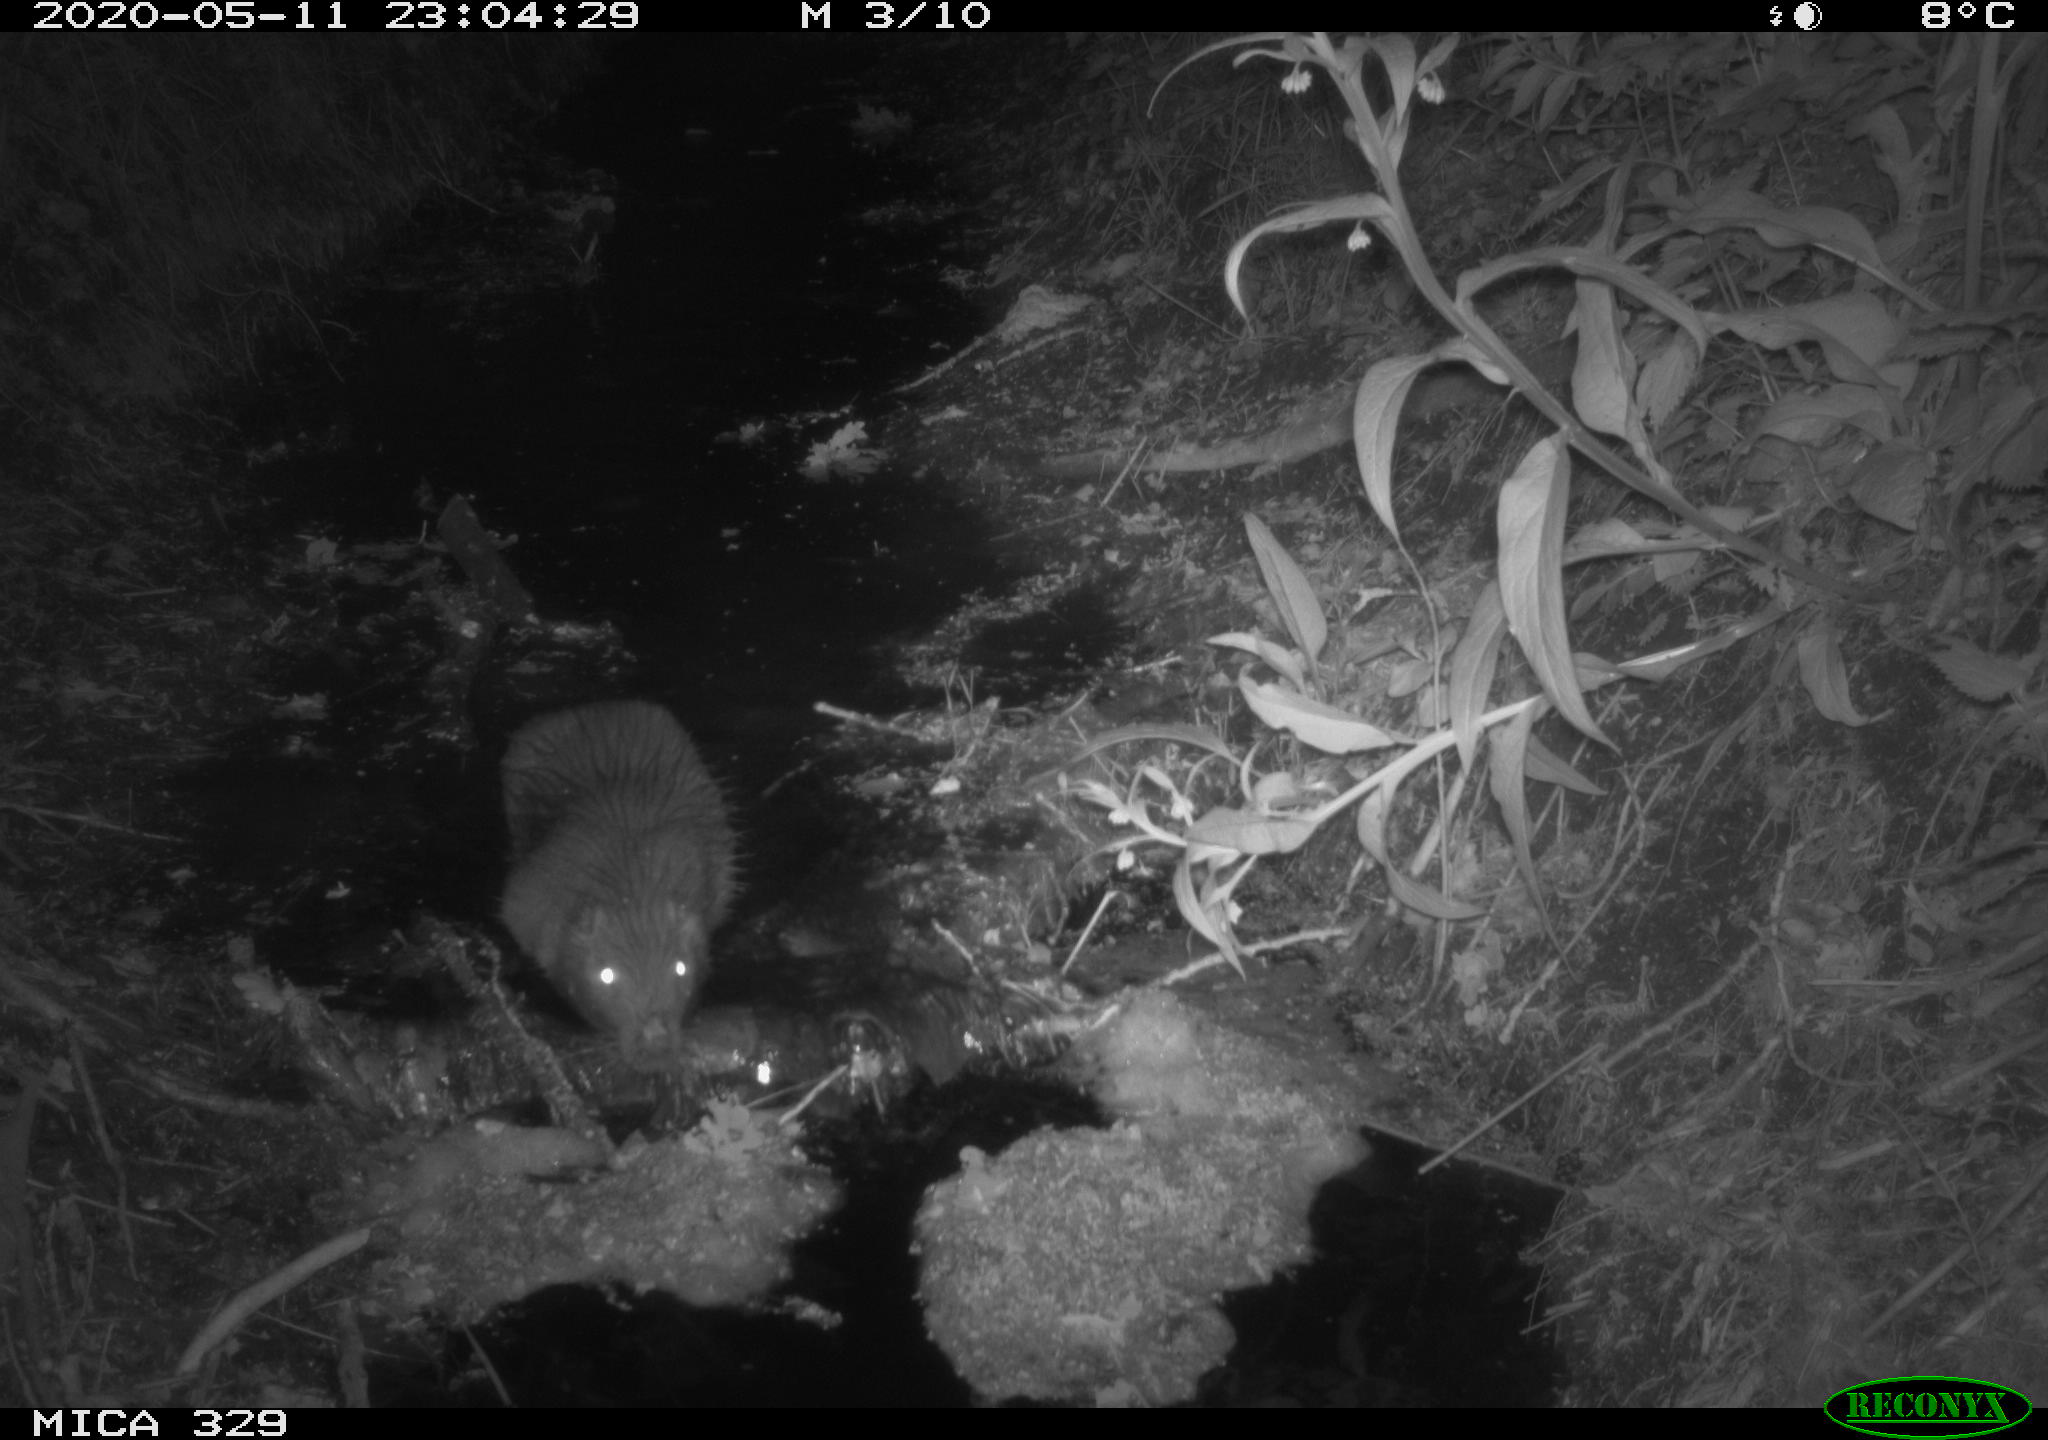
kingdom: Animalia
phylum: Chordata
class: Mammalia
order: Rodentia
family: Myocastoridae
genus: Myocastor
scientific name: Myocastor coypus
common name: Coypu
